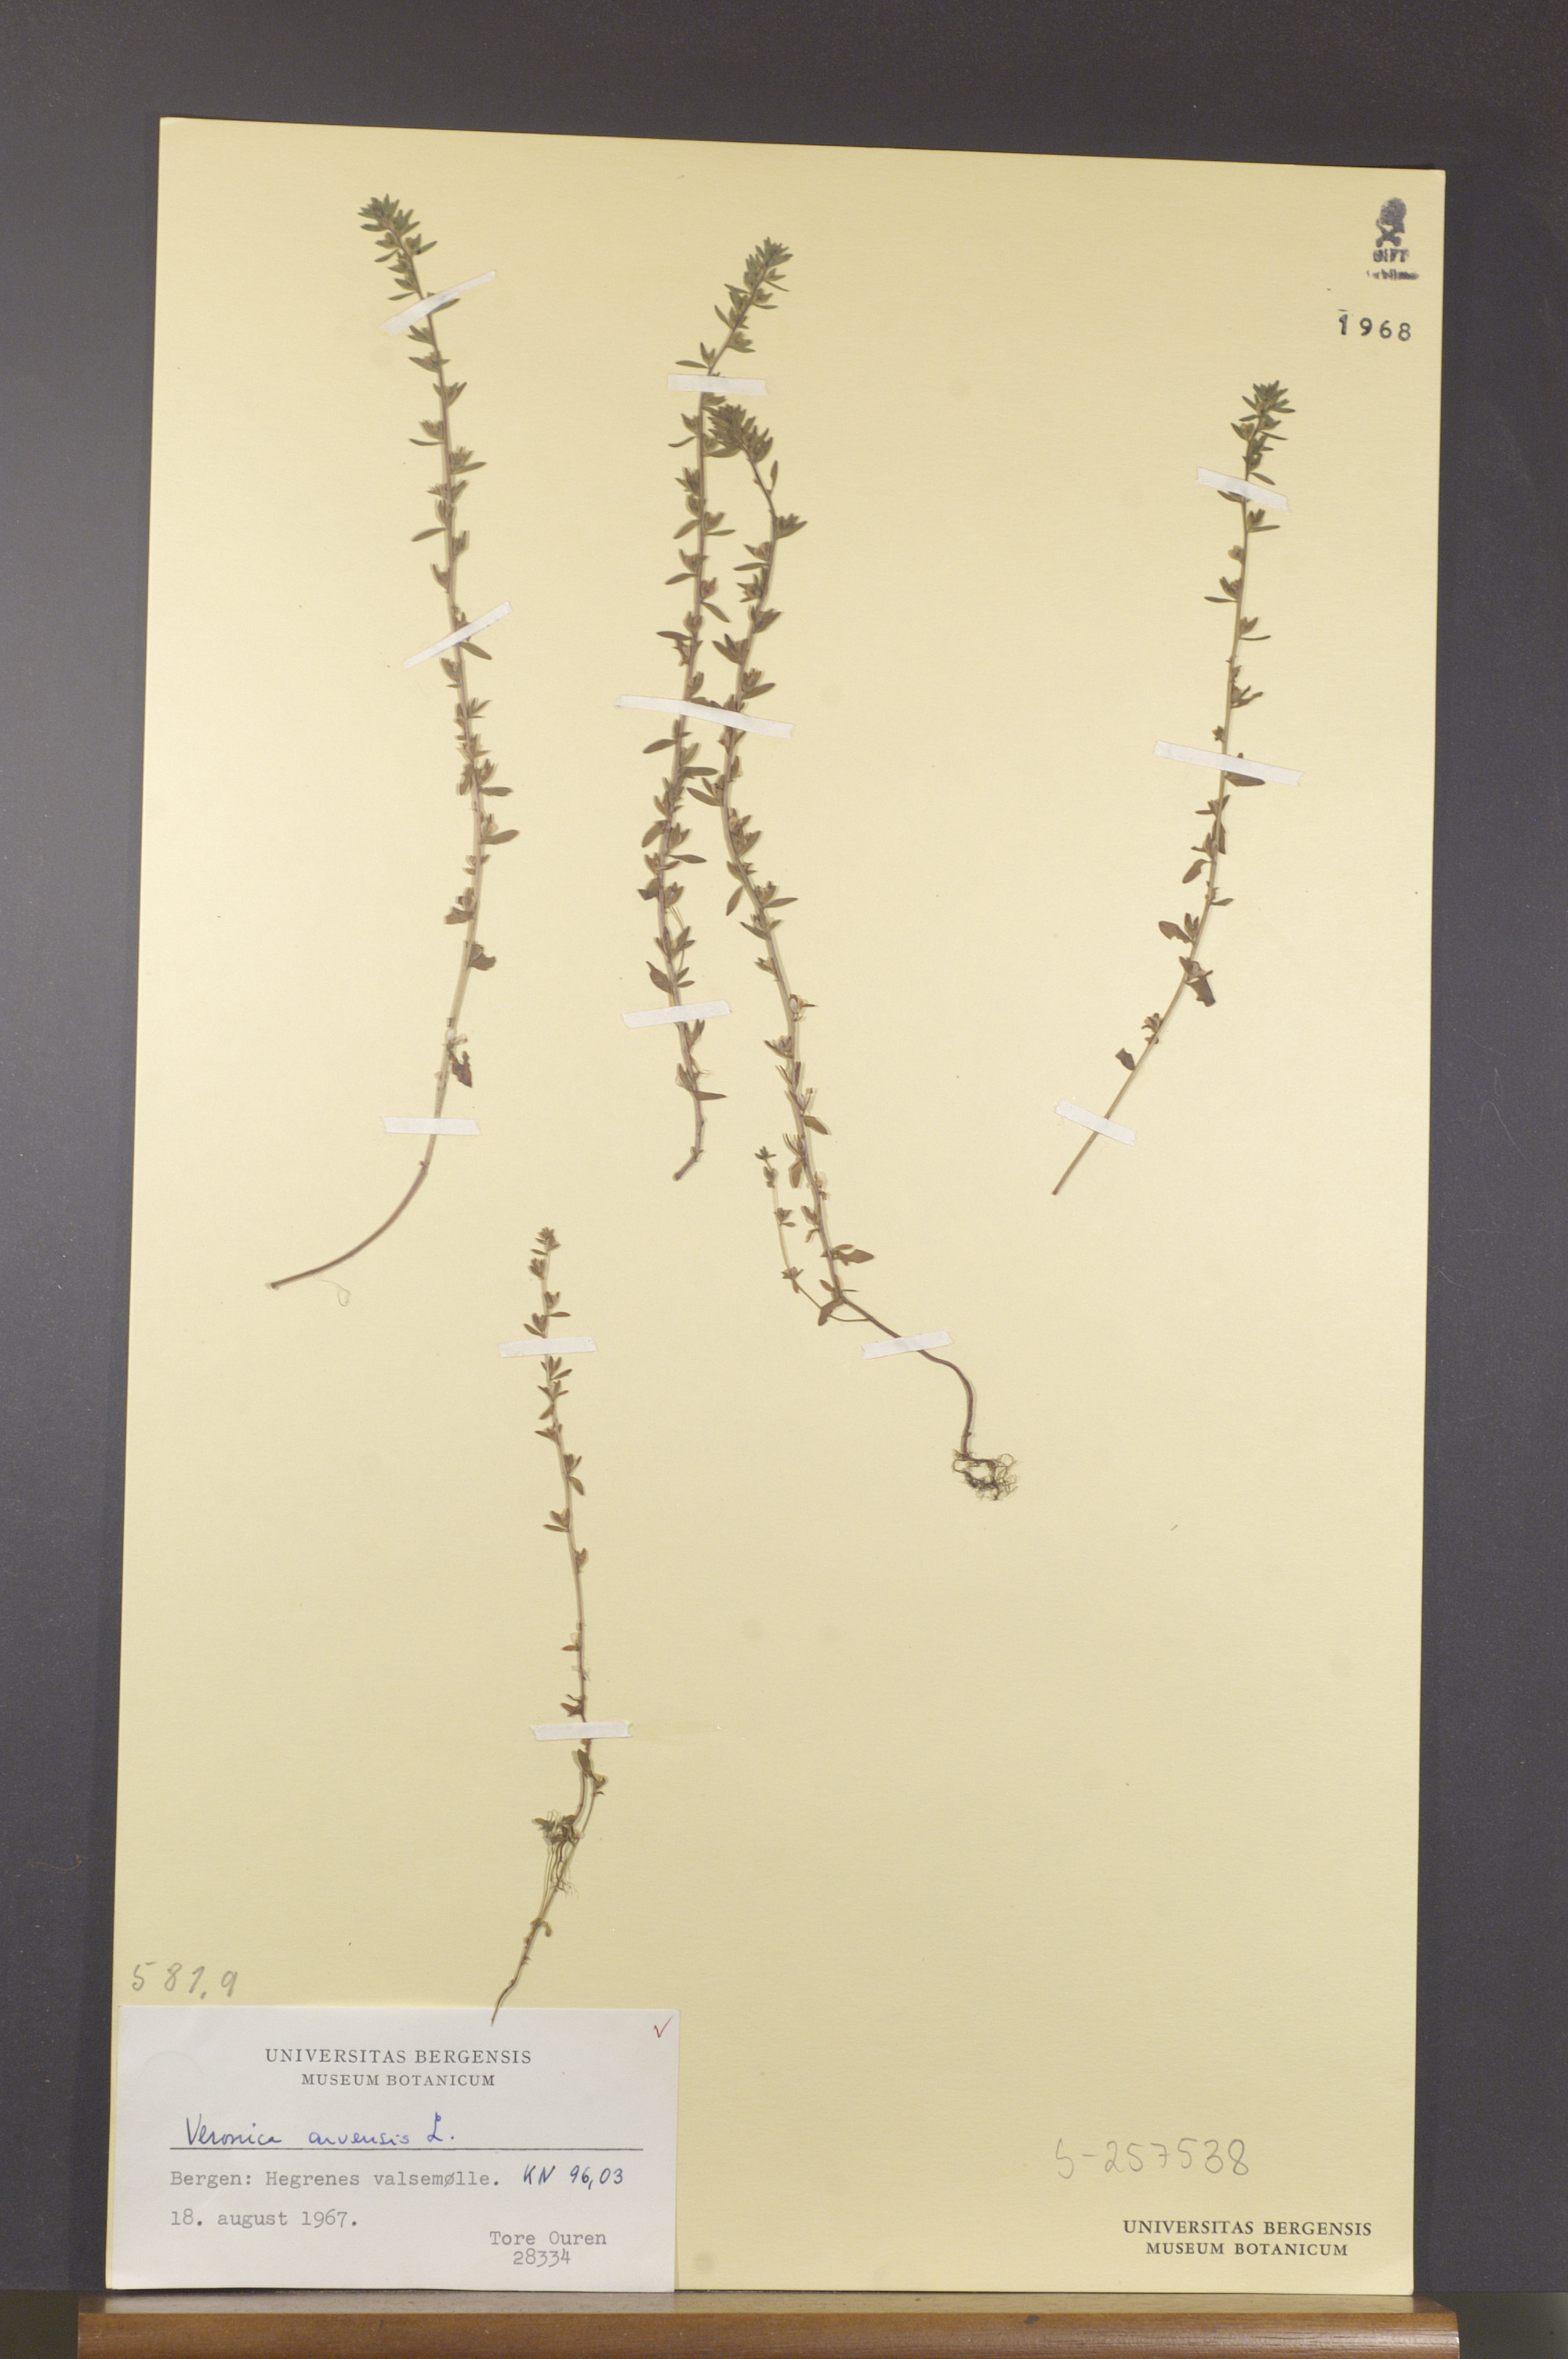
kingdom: Plantae
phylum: Tracheophyta
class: Magnoliopsida
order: Lamiales
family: Plantaginaceae
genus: Veronica
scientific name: Veronica arvensis
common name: Corn speedwell
